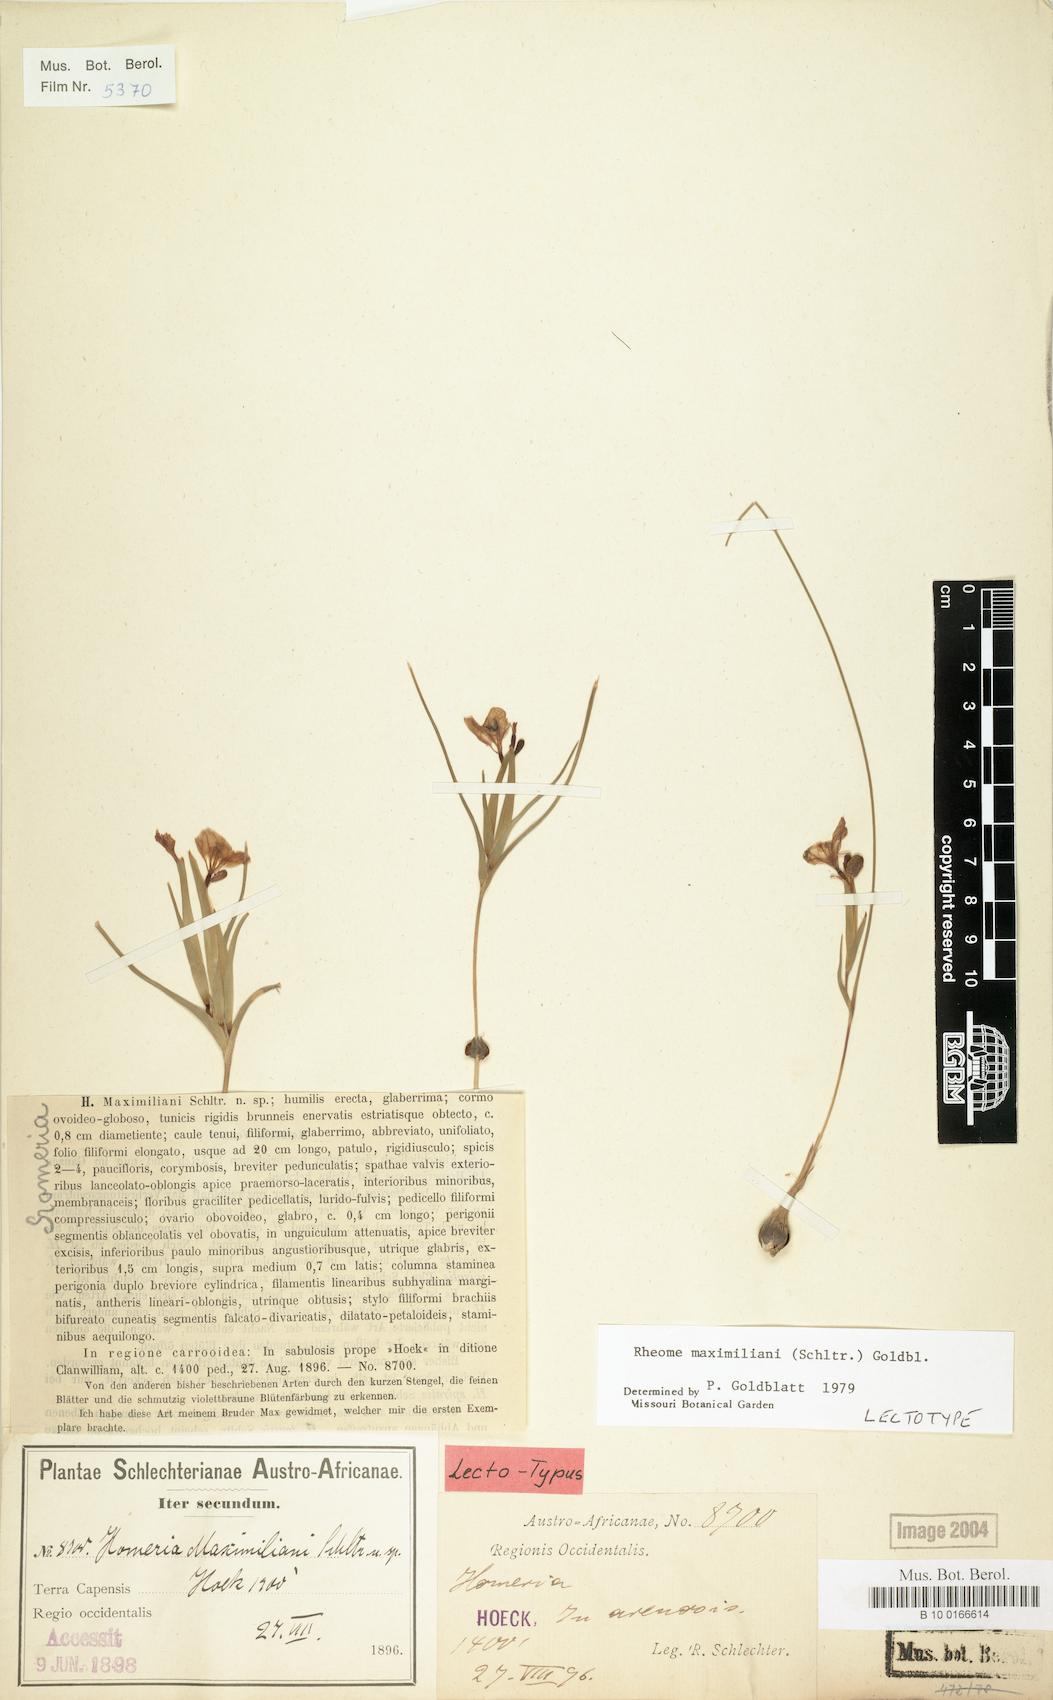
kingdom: Plantae
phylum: Tracheophyta
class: Liliopsida
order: Asparagales
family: Iridaceae
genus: Moraea
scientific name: Moraea maximiliani
